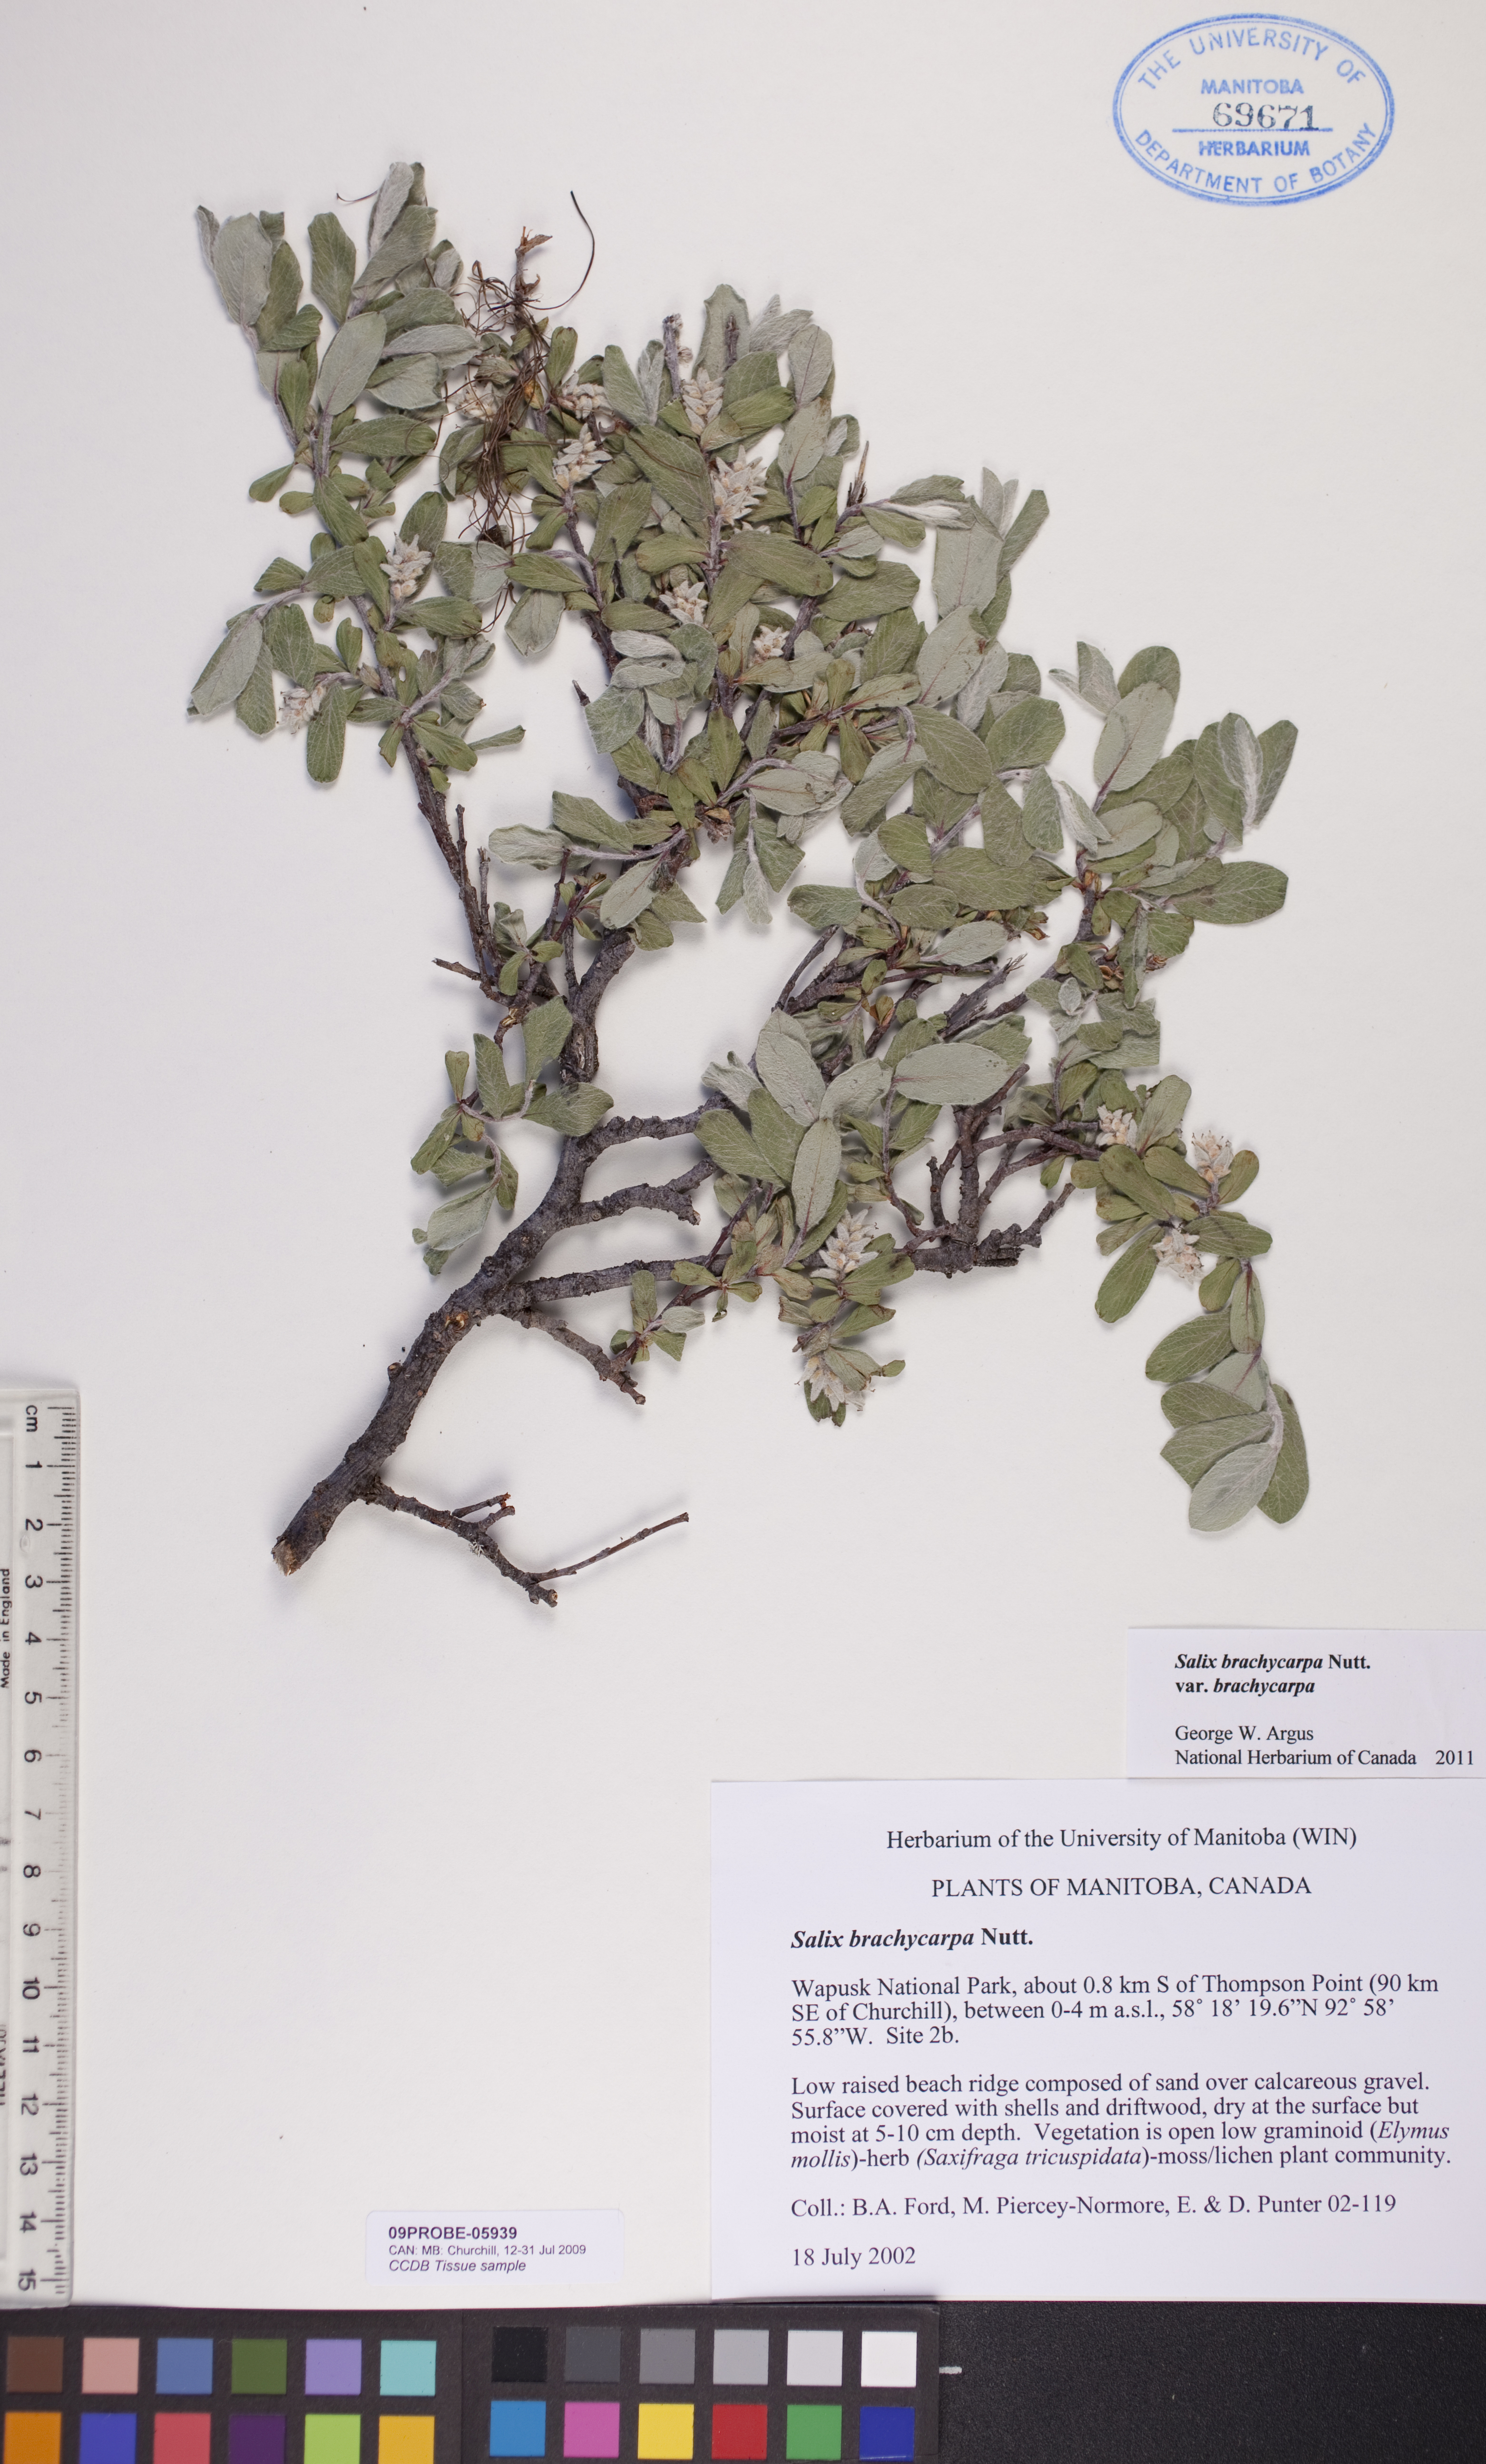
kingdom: Plantae
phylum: Tracheophyta
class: Magnoliopsida
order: Malpighiales
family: Salicaceae
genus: Salix
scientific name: Salix brachycarpa
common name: Barren-ground willow
